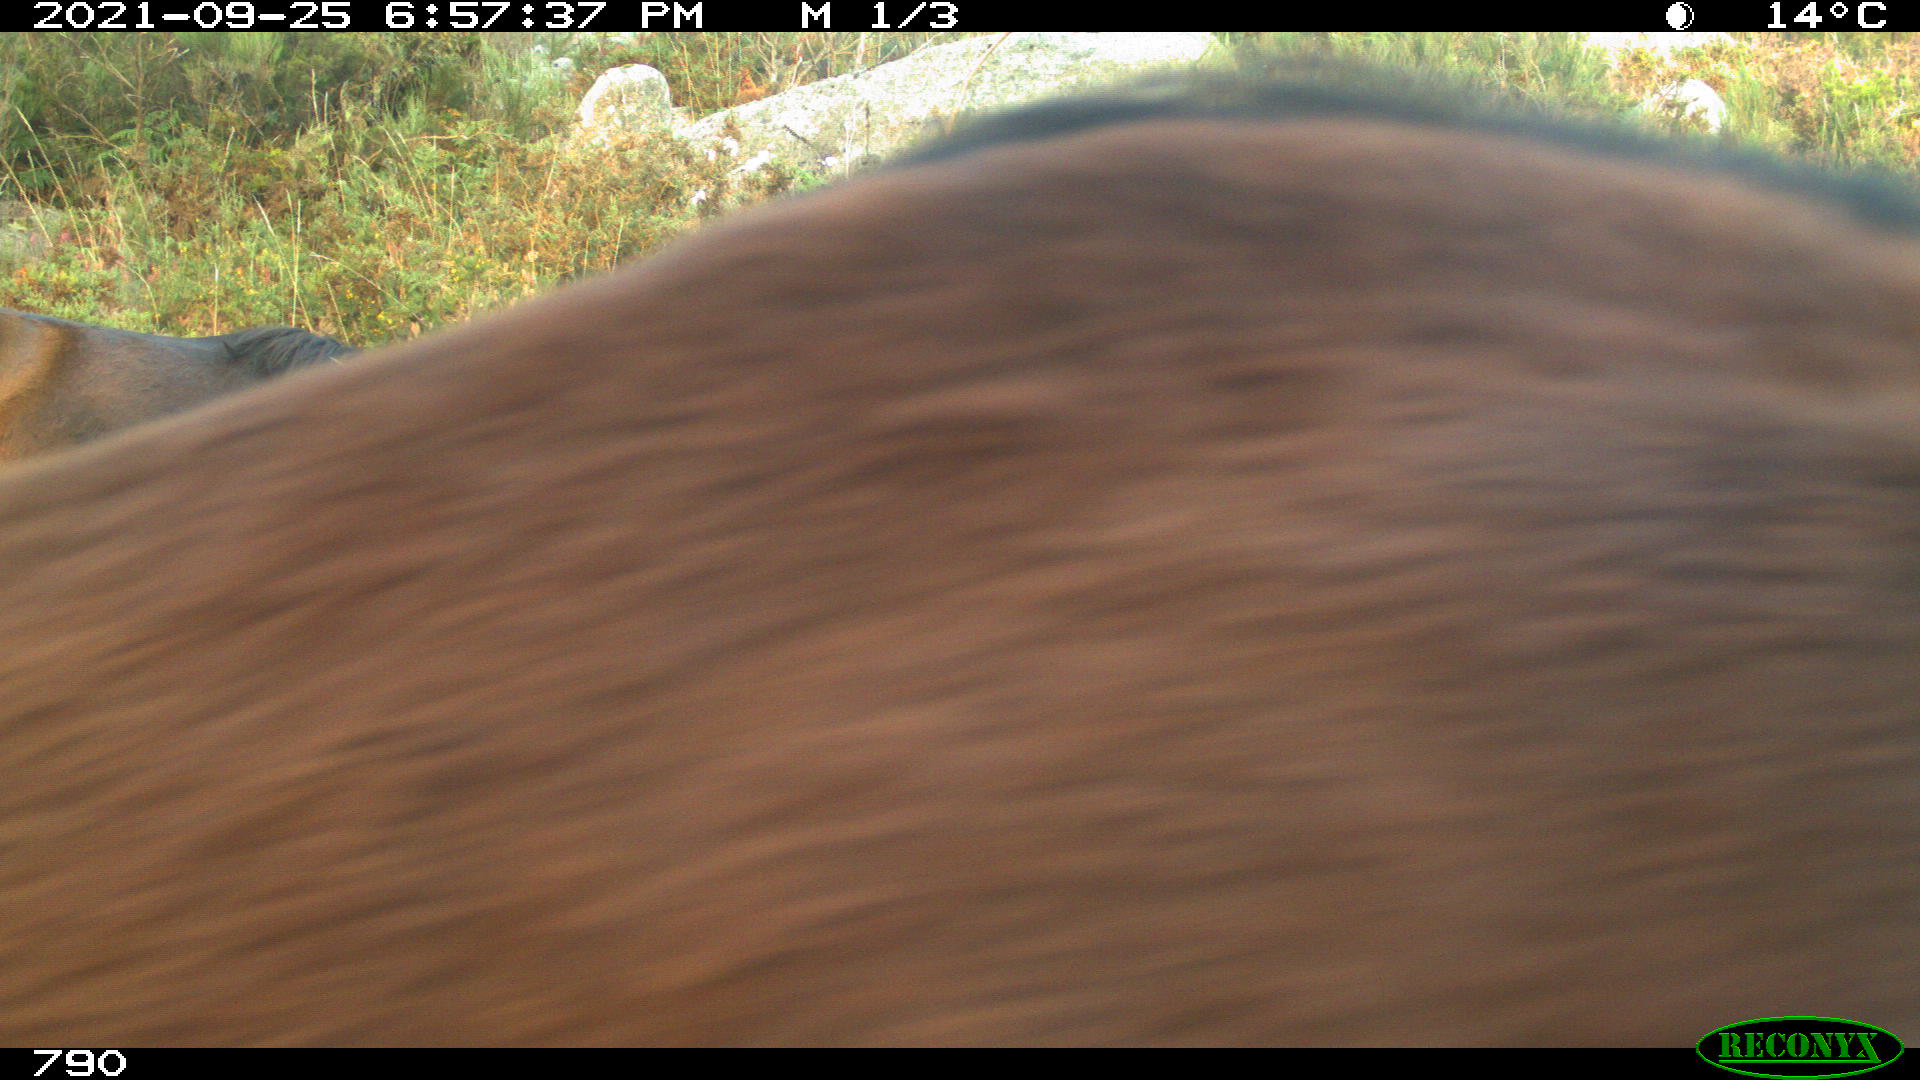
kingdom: Animalia
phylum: Chordata
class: Mammalia
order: Perissodactyla
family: Equidae
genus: Equus
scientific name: Equus caballus
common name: Horse
